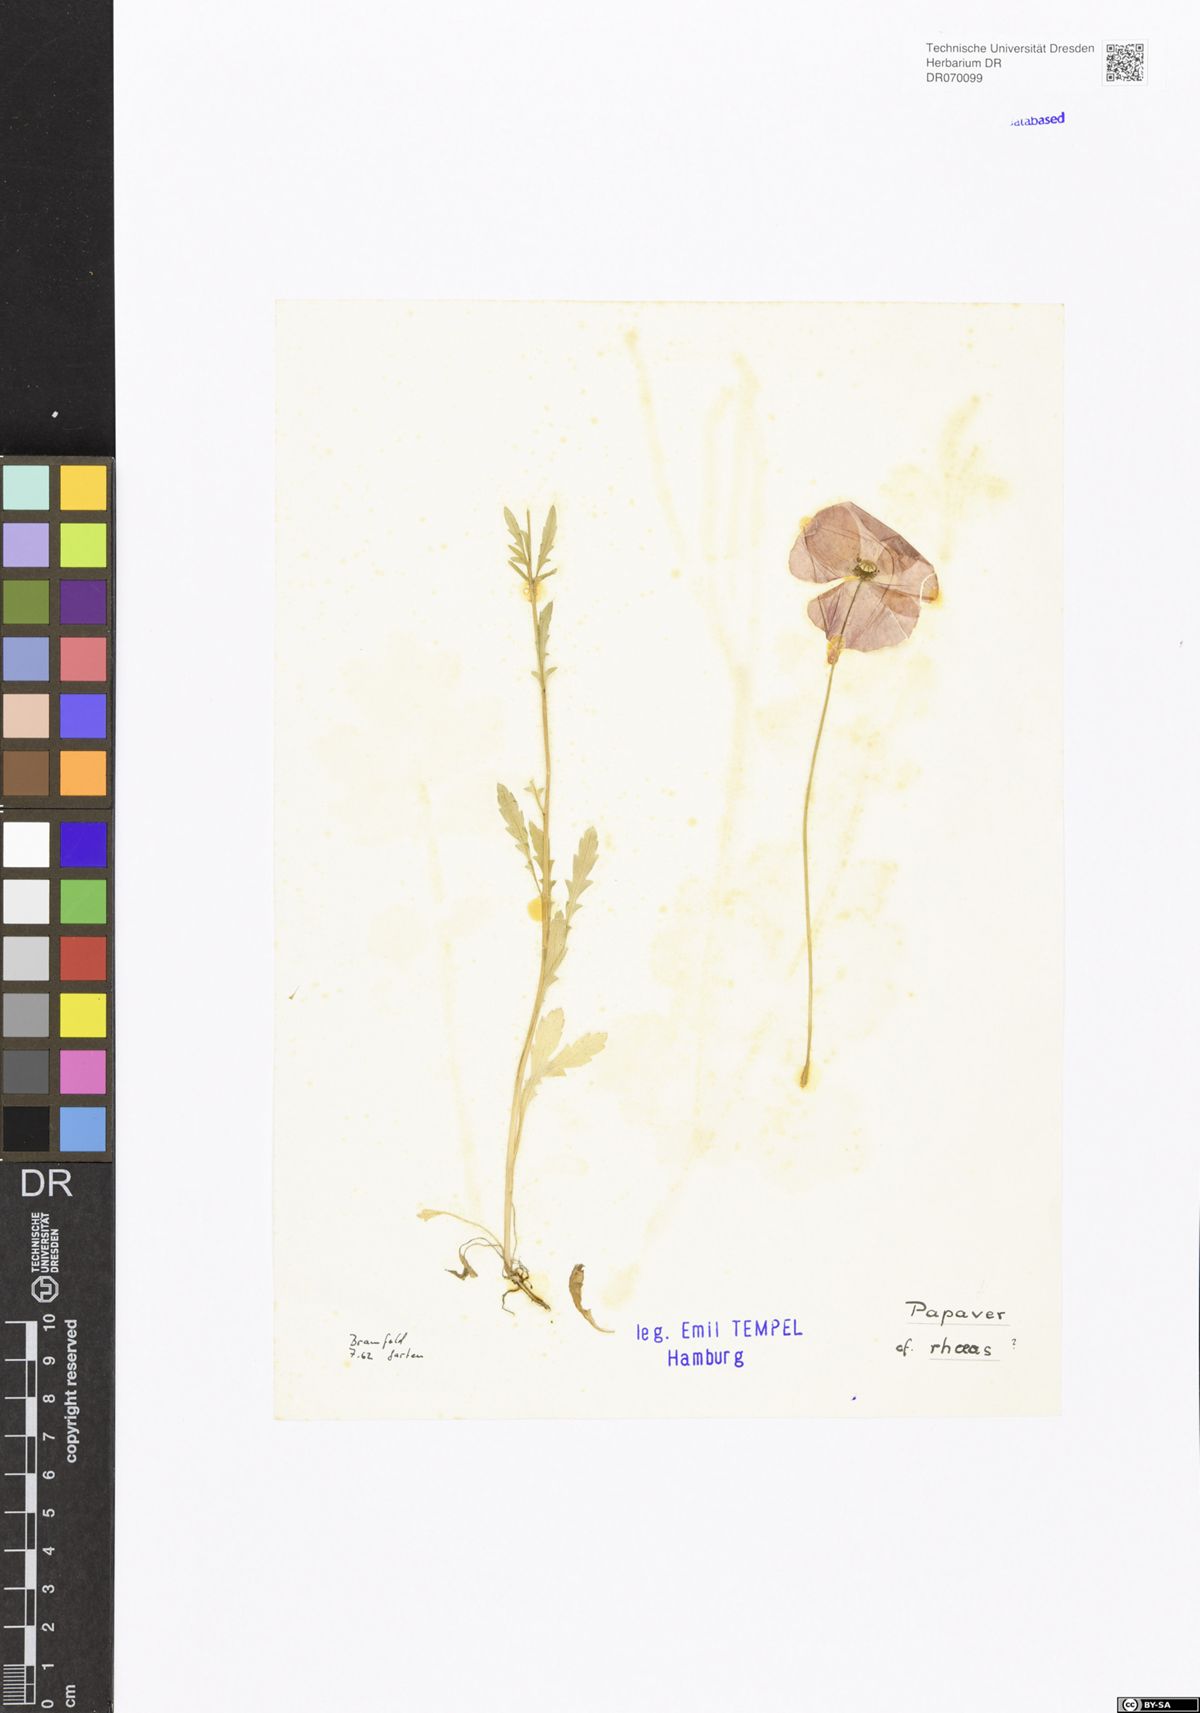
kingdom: Plantae
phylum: Tracheophyta
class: Magnoliopsida
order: Ranunculales
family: Papaveraceae
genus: Papaver
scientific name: Papaver rhoeas
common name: Corn poppy
